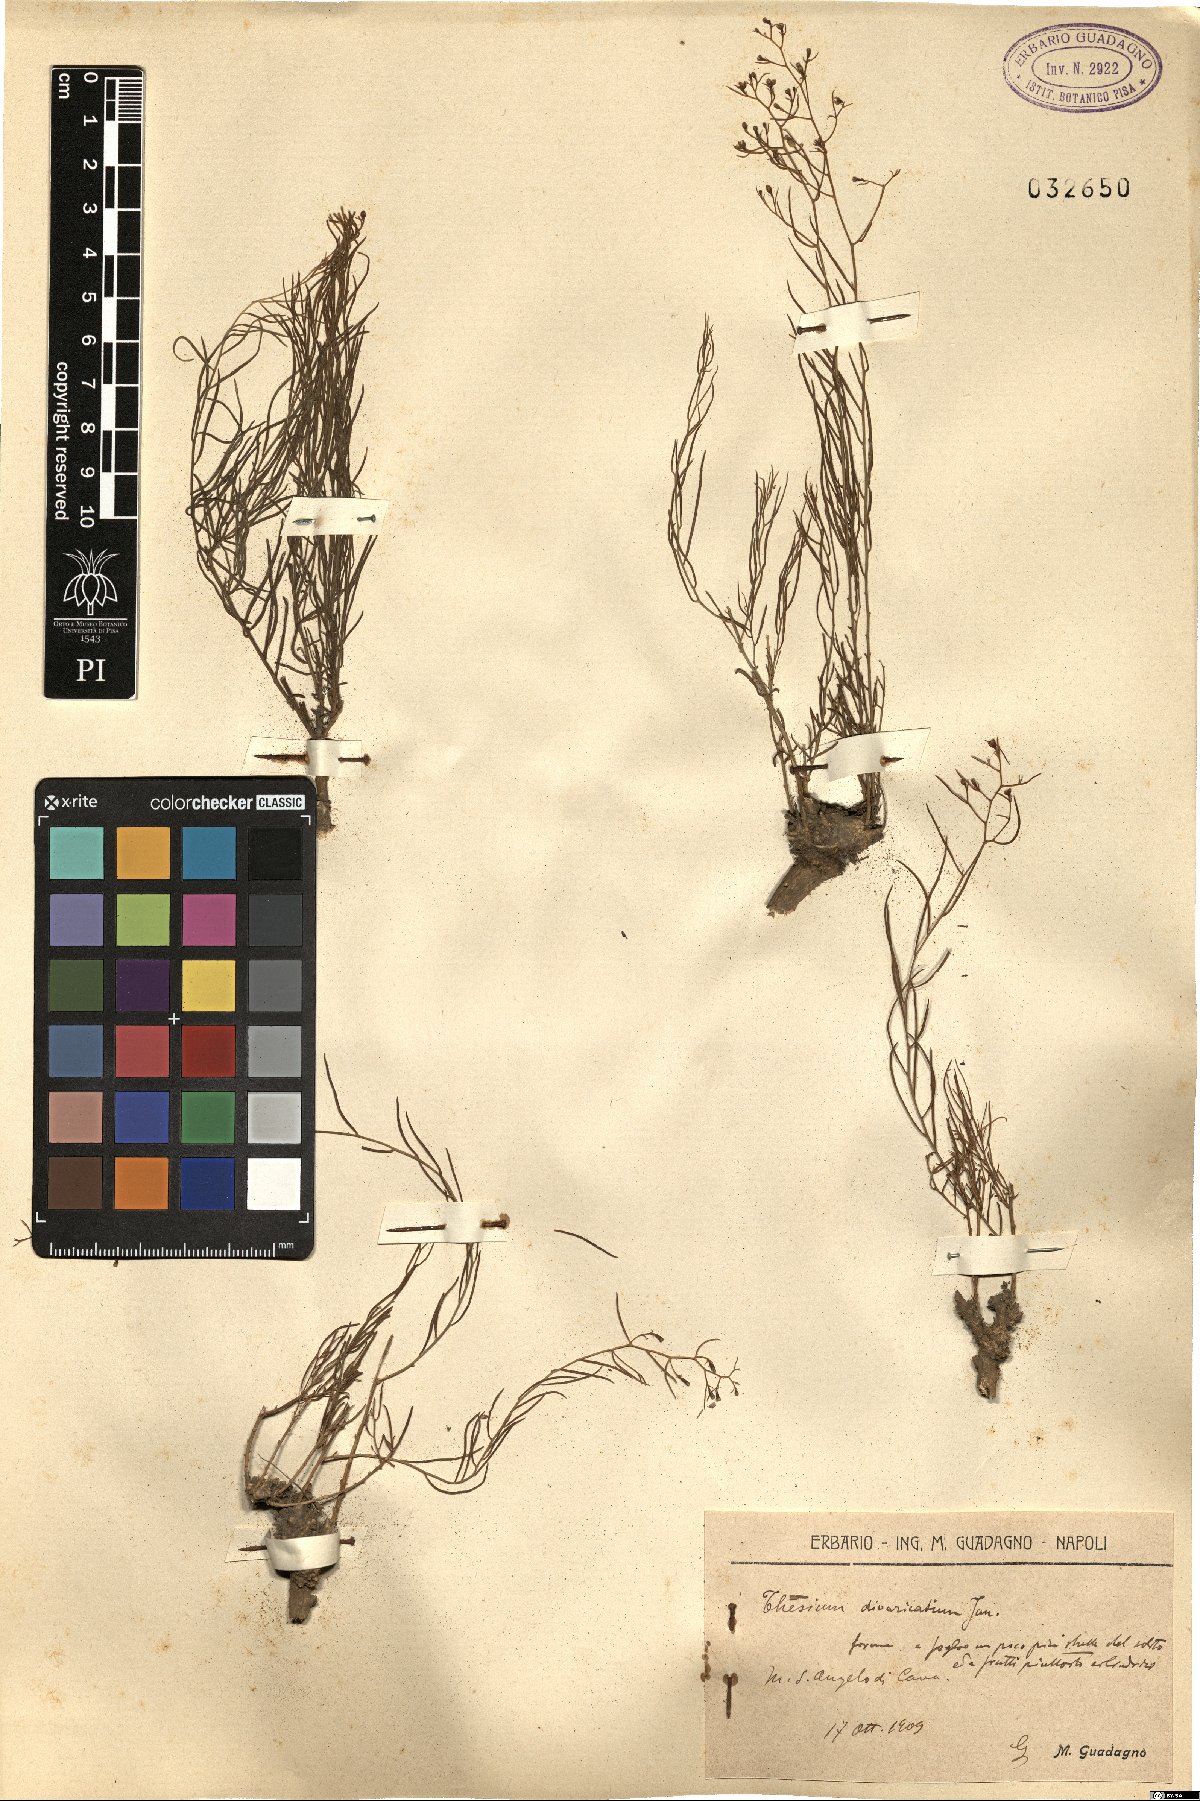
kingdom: Plantae
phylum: Tracheophyta
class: Magnoliopsida
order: Santalales
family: Thesiaceae
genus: Thesium
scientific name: Thesium divaricatum
